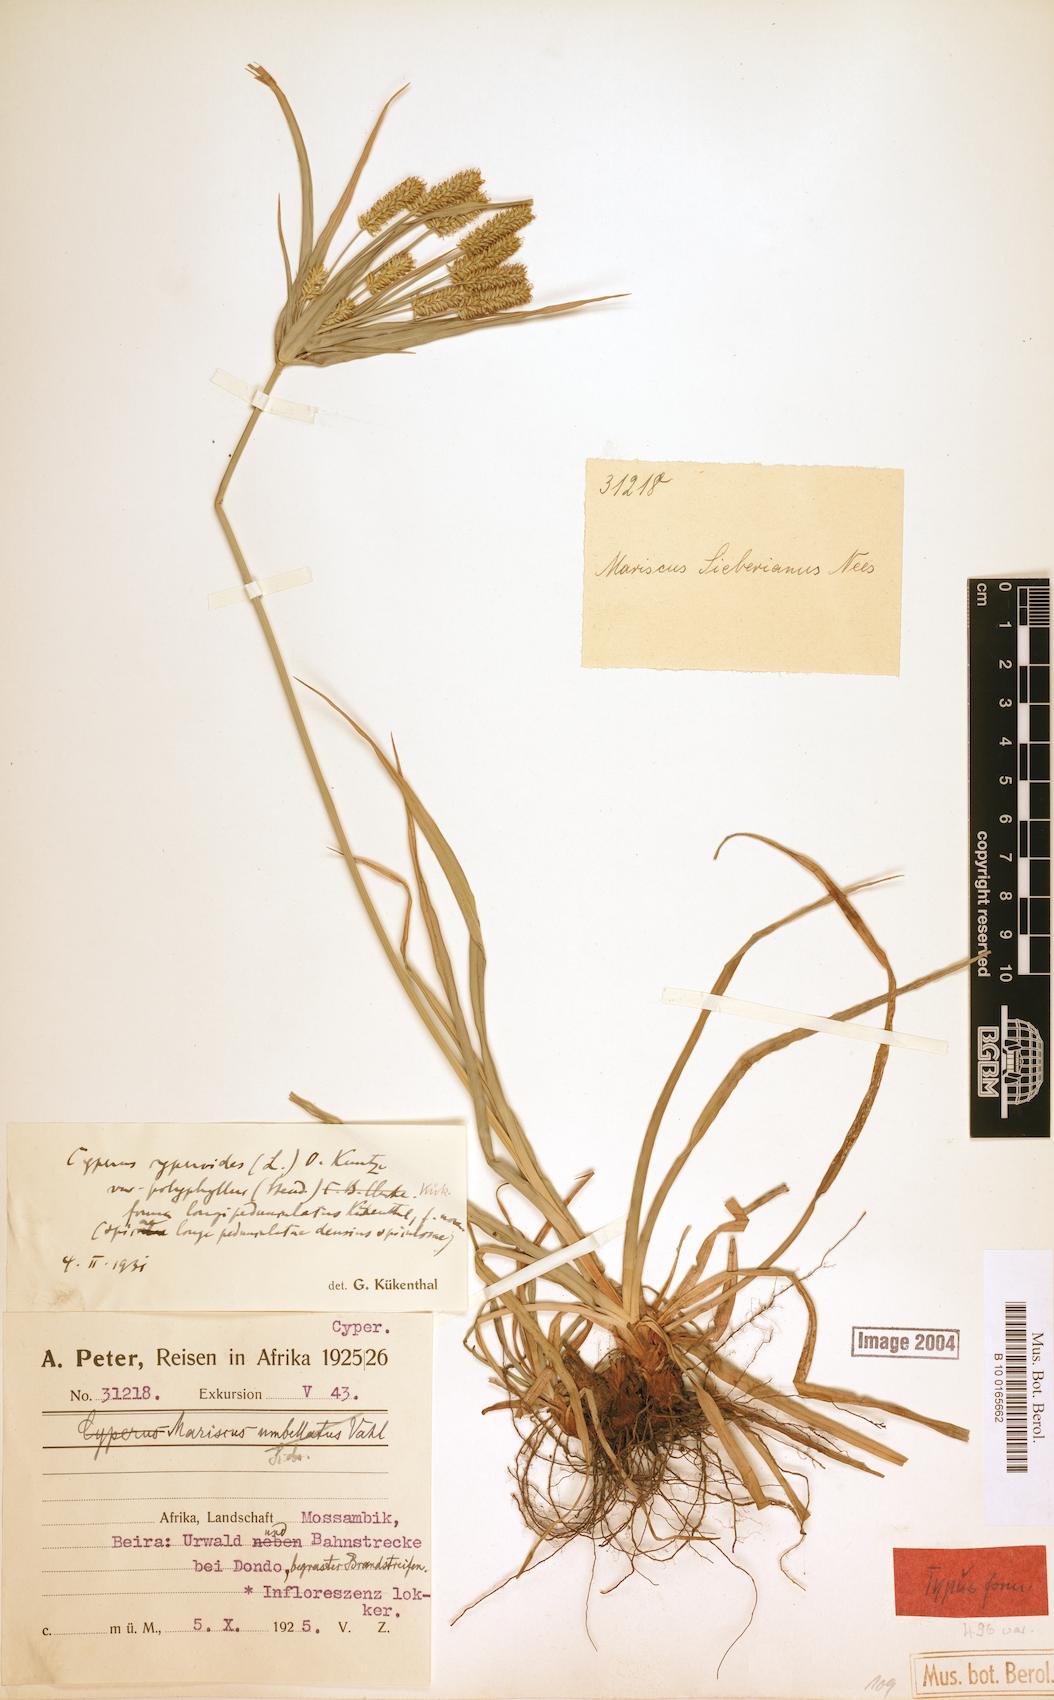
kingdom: Plantae
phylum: Tracheophyta
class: Liliopsida
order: Poales
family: Cyperaceae
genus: Cyperus
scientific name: Cyperus cyperoides
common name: Pacific island flat sedge
